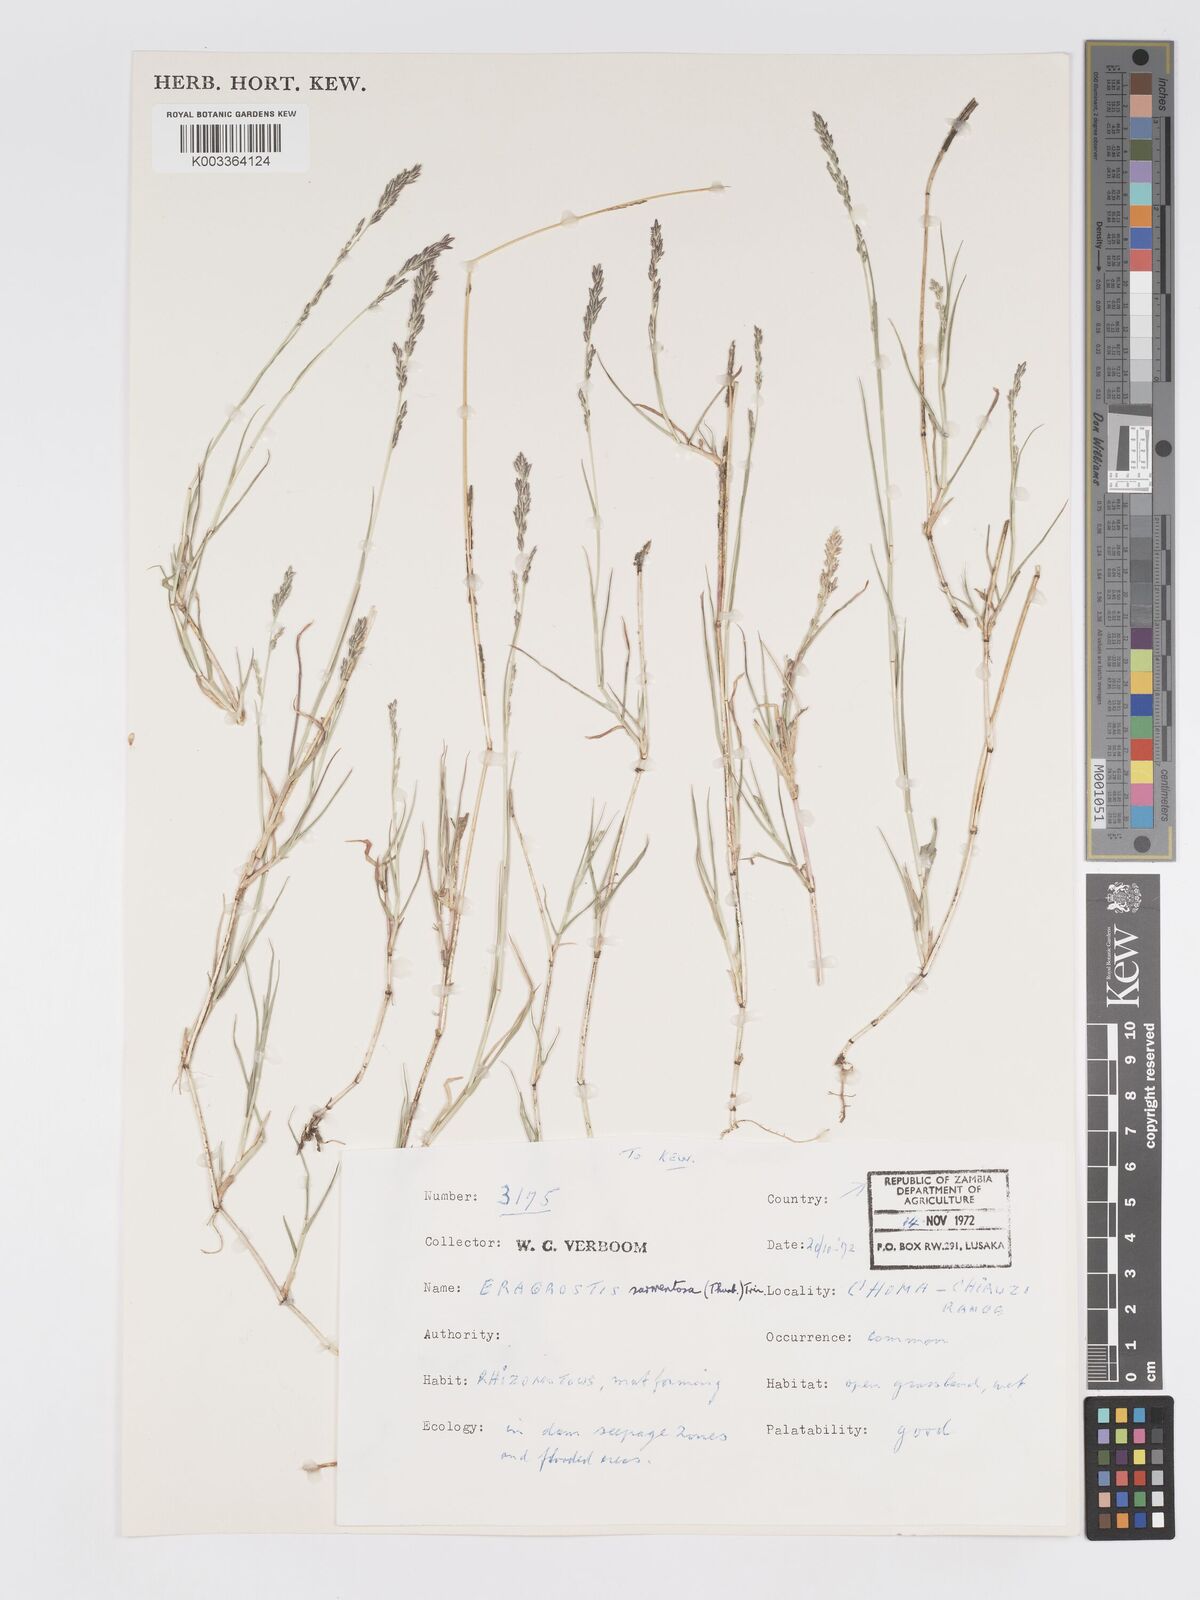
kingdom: Plantae
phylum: Tracheophyta
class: Liliopsida
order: Poales
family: Poaceae
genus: Eragrostis
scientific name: Eragrostis sarmentosa
